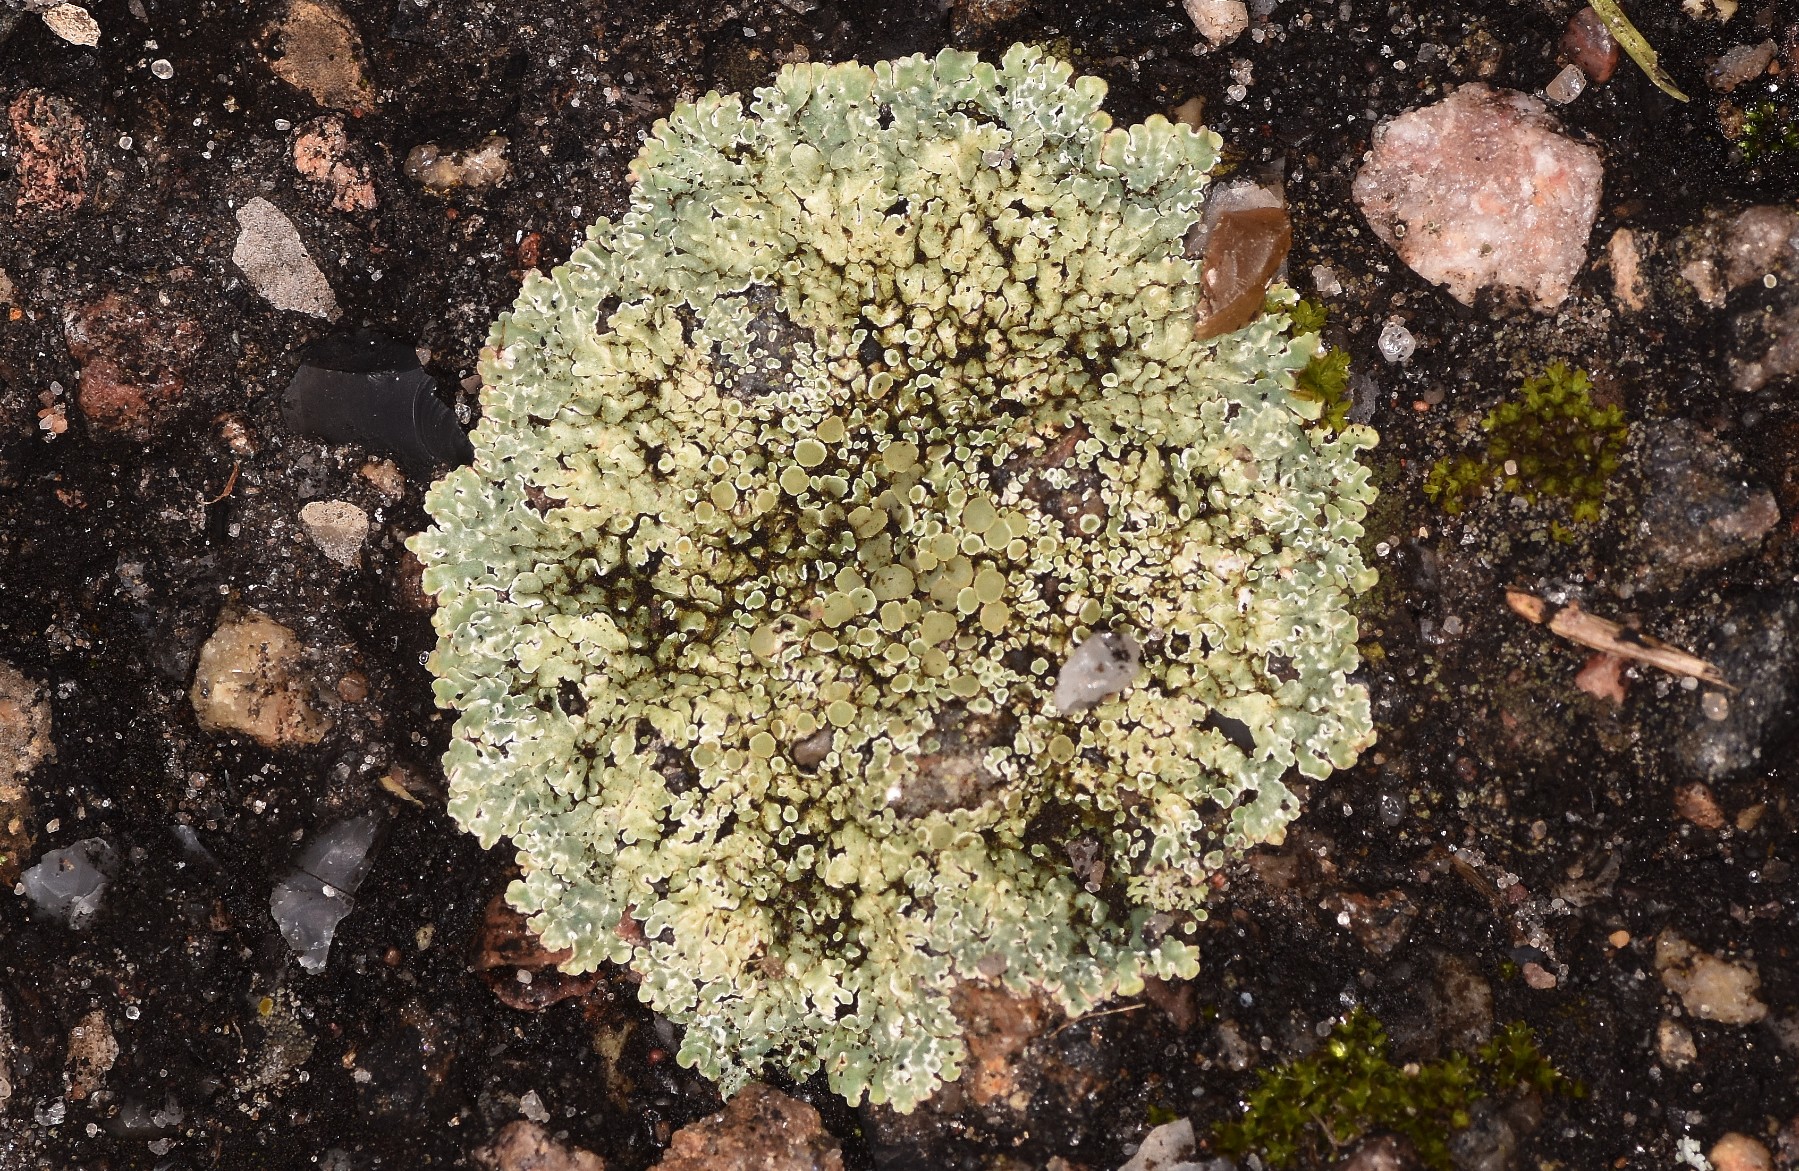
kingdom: Fungi
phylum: Ascomycota
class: Lecanoromycetes
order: Lecanorales
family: Lecanoraceae
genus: Protoparmeliopsis
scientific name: Protoparmeliopsis muralis
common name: randfliget kantskivelav
